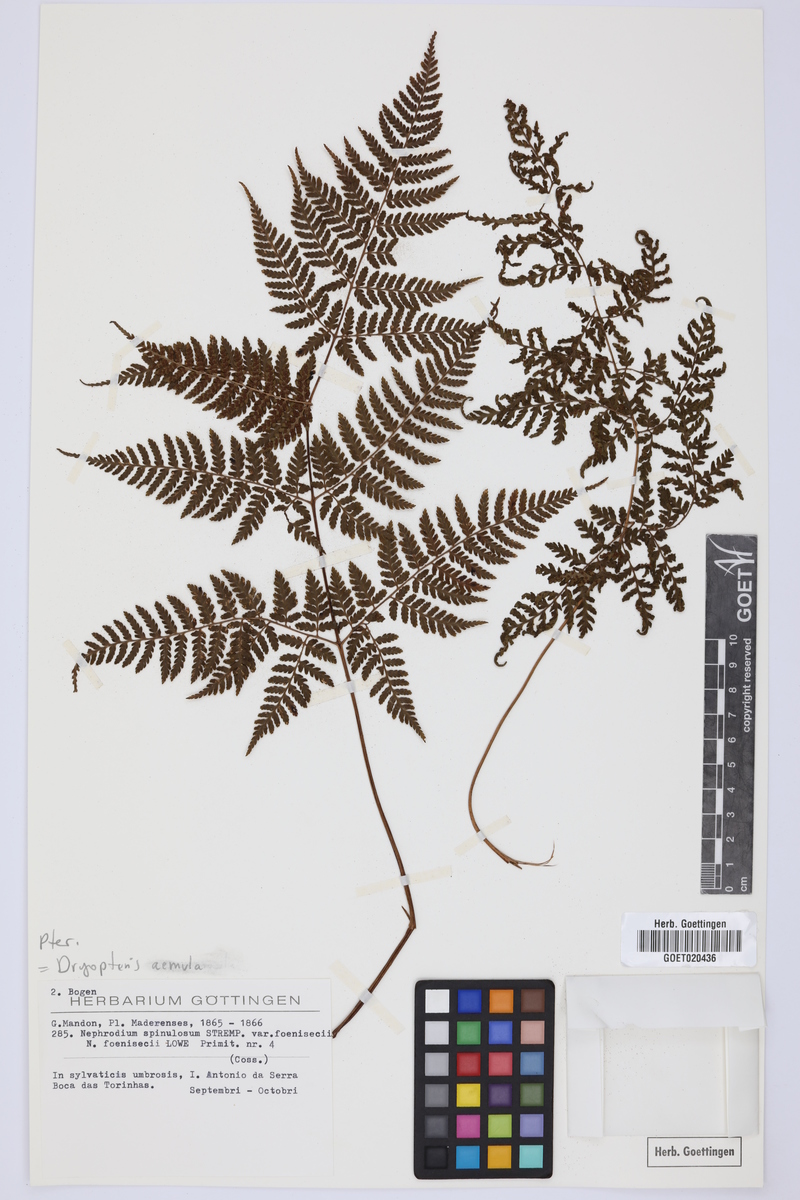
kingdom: Plantae
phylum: Tracheophyta
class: Polypodiopsida
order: Polypodiales
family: Dryopteridaceae
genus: Dryopteris
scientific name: Dryopteris aemula
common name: Hay-scented buckler-fern
